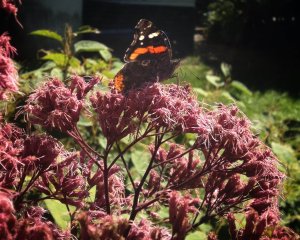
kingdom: Animalia
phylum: Arthropoda
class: Insecta
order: Lepidoptera
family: Nymphalidae
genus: Vanessa
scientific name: Vanessa atalanta
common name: Red Admiral
